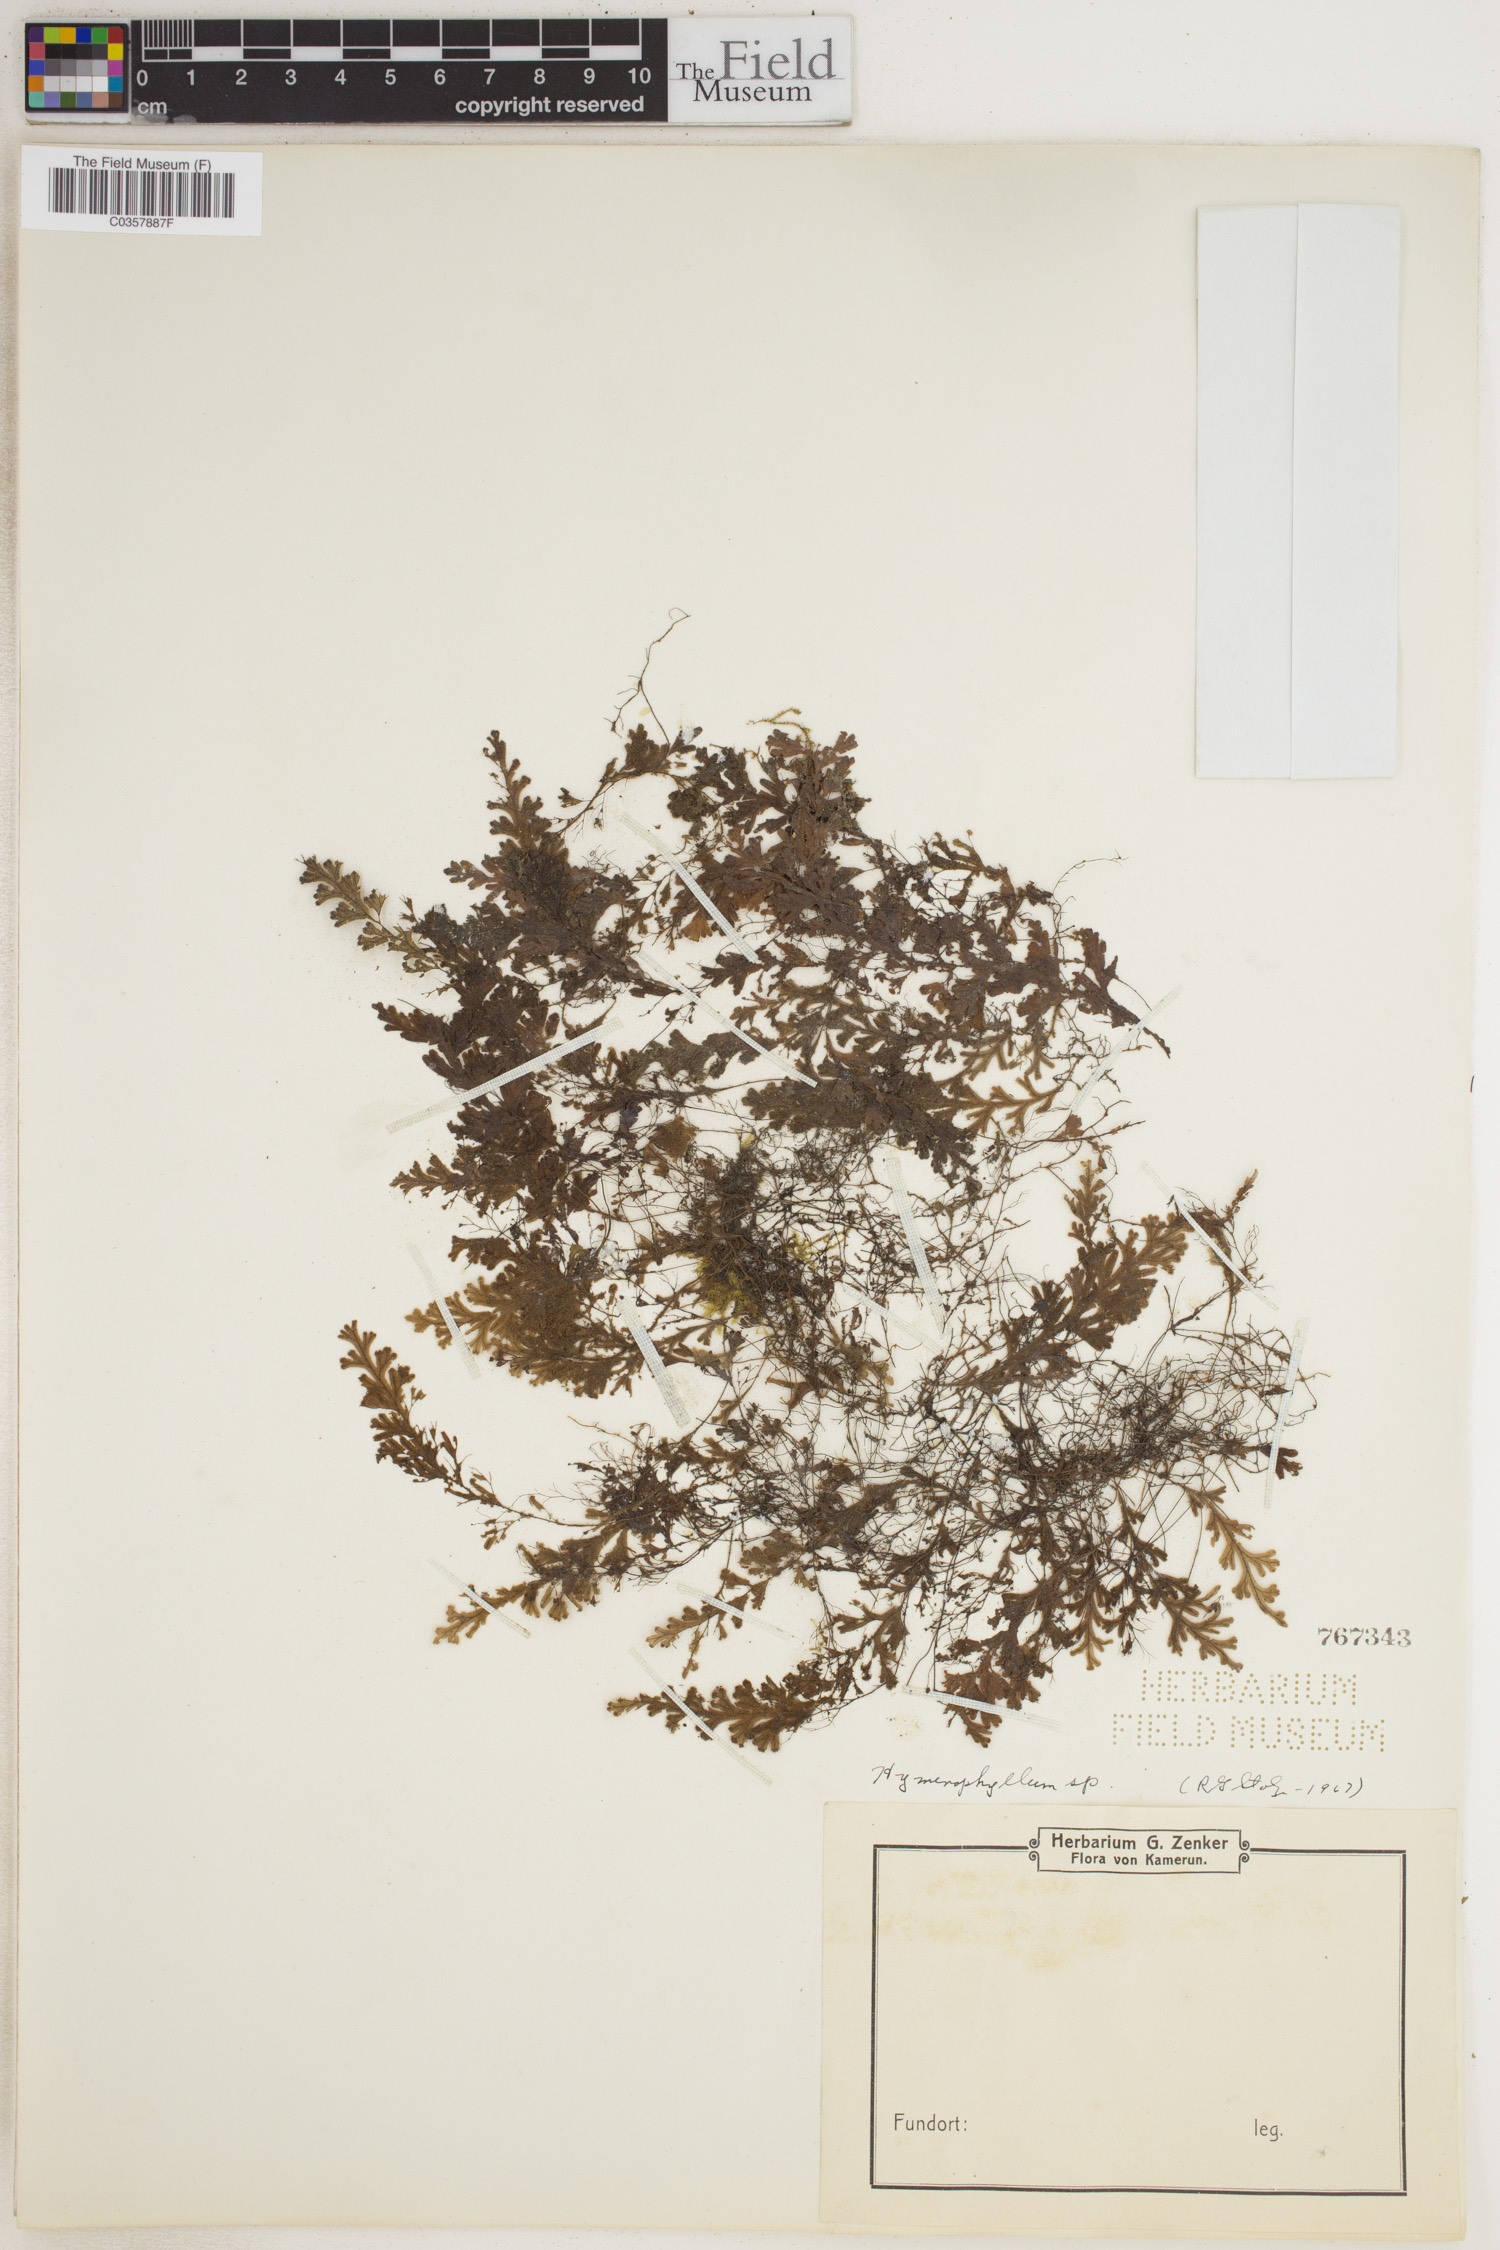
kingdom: Plantae
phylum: Tracheophyta
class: Polypodiopsida
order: Hymenophyllales
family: Hymenophyllaceae
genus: Hymenophyllum
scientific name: Hymenophyllum
